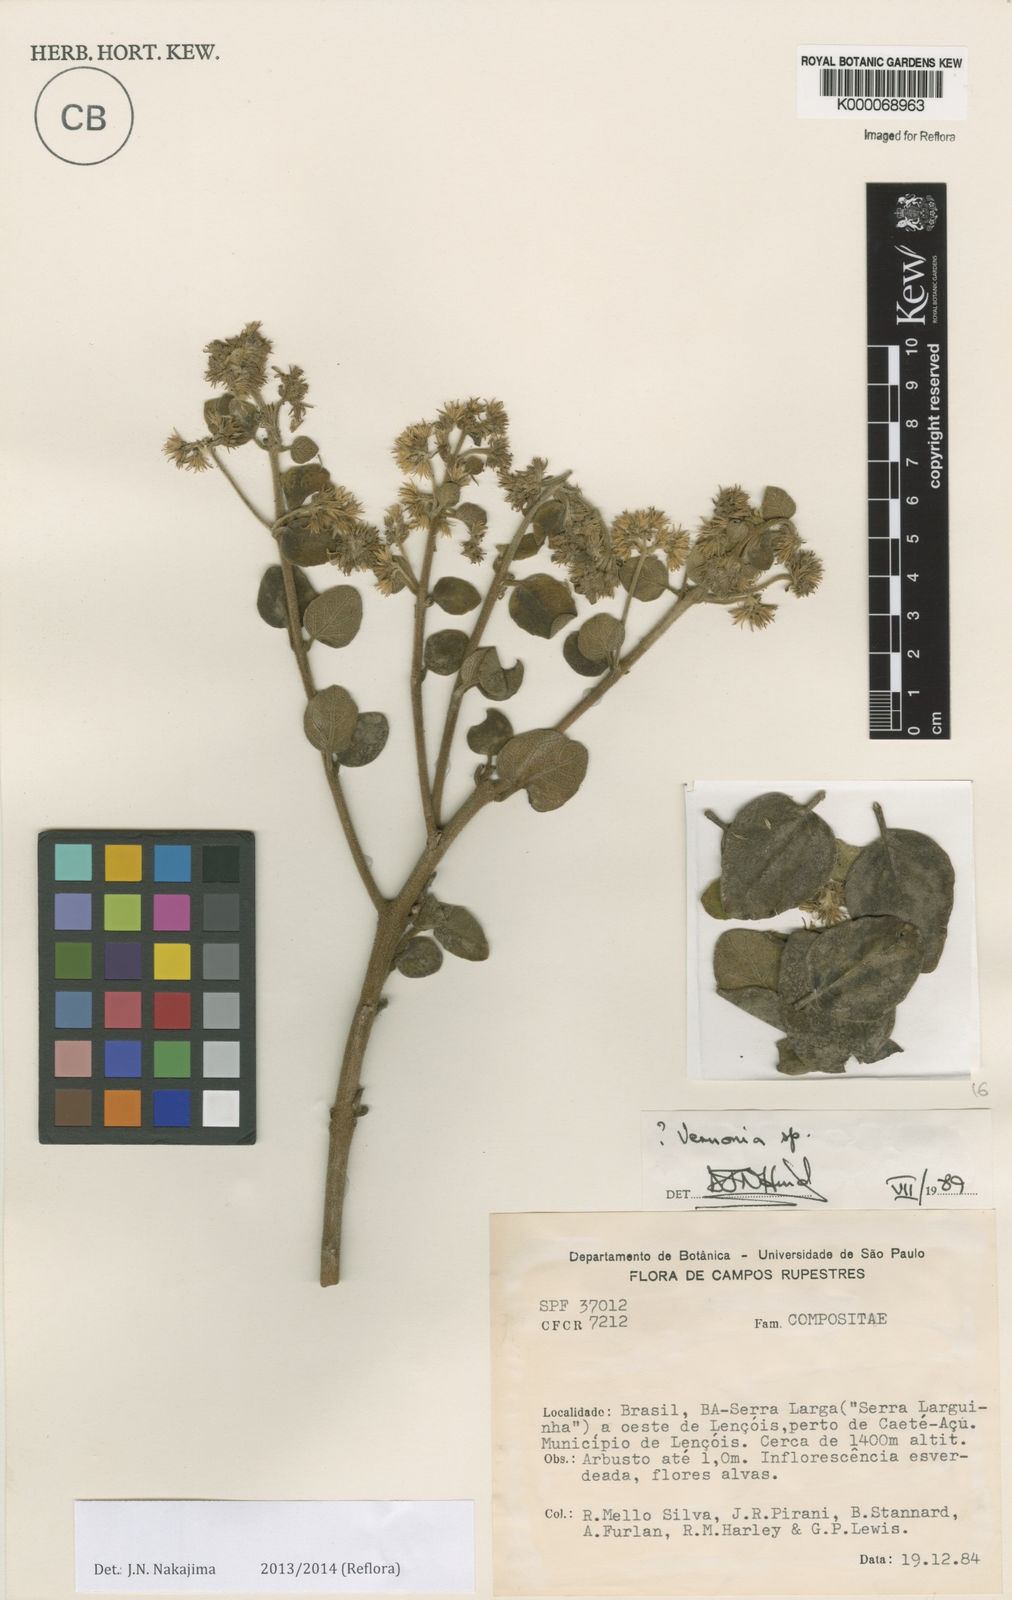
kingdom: Plantae
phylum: Tracheophyta
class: Magnoliopsida
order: Asterales
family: Asteraceae
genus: Vernonia
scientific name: Vernonia
